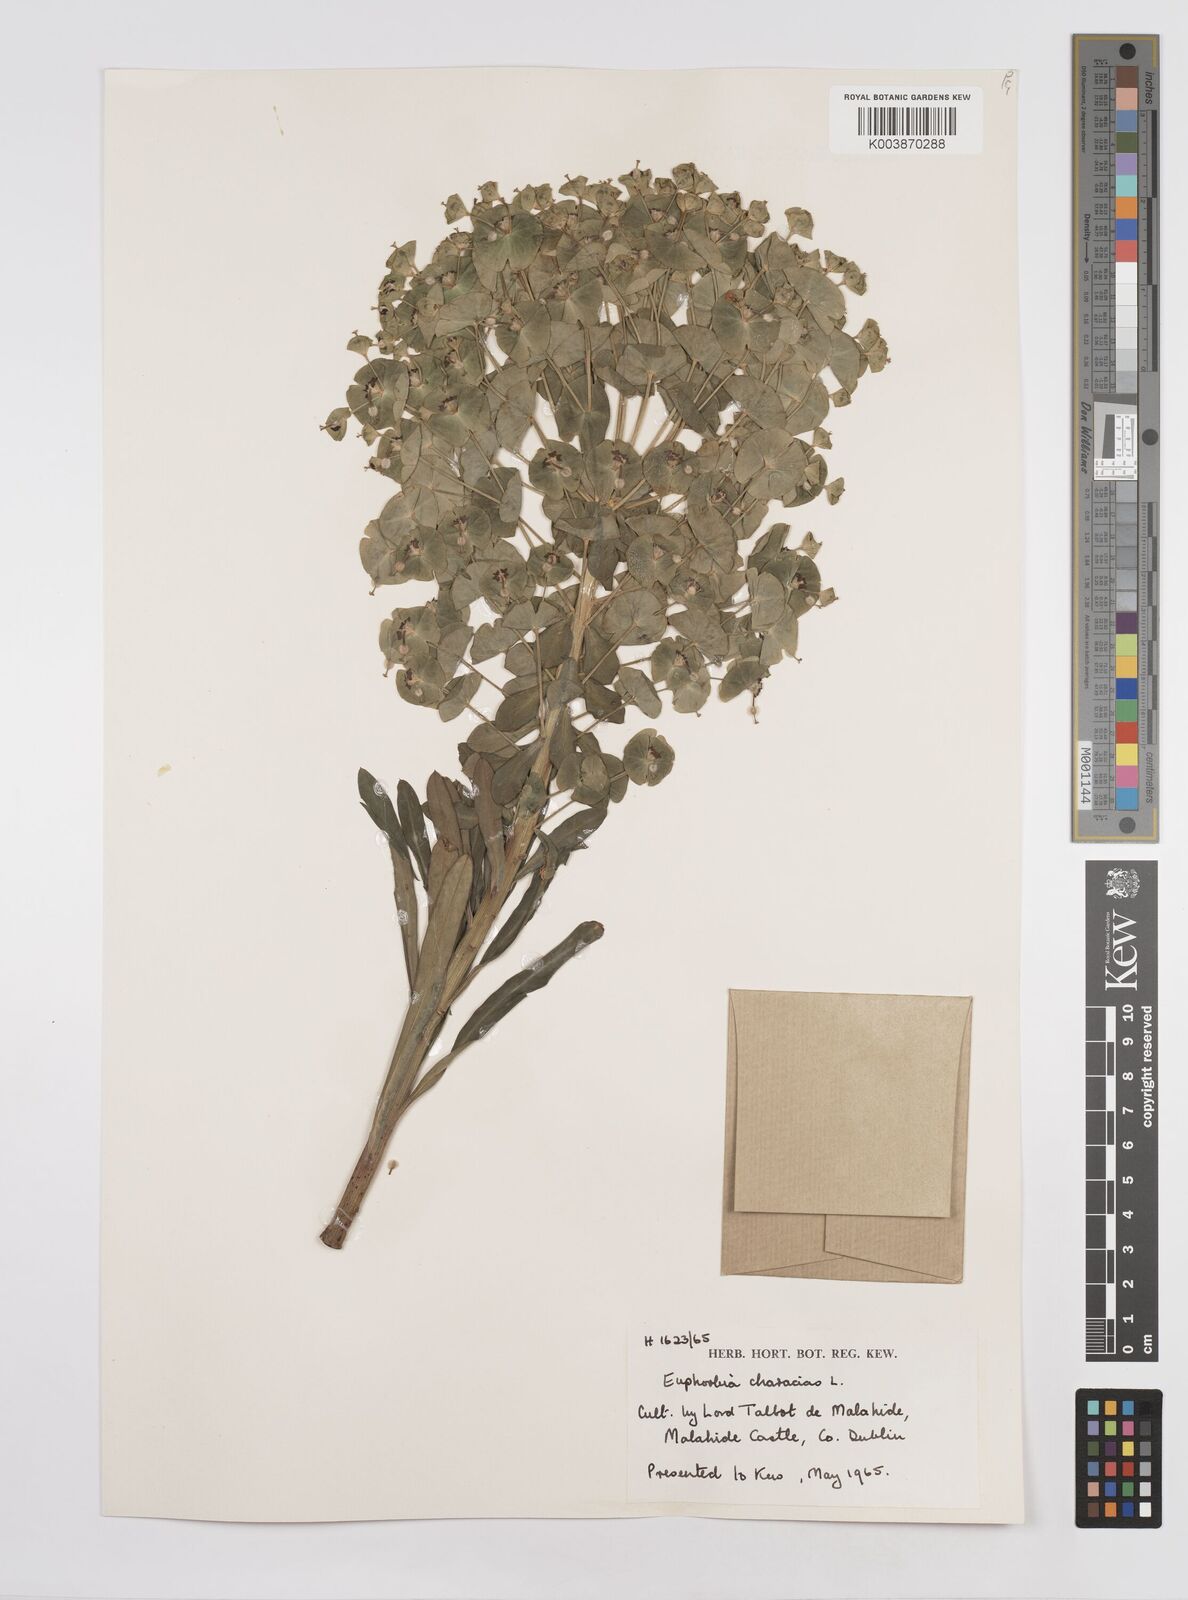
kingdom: Plantae
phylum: Tracheophyta
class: Magnoliopsida
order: Malpighiales
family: Euphorbiaceae
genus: Euphorbia
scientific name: Euphorbia characias
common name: Mediterranean spurge
